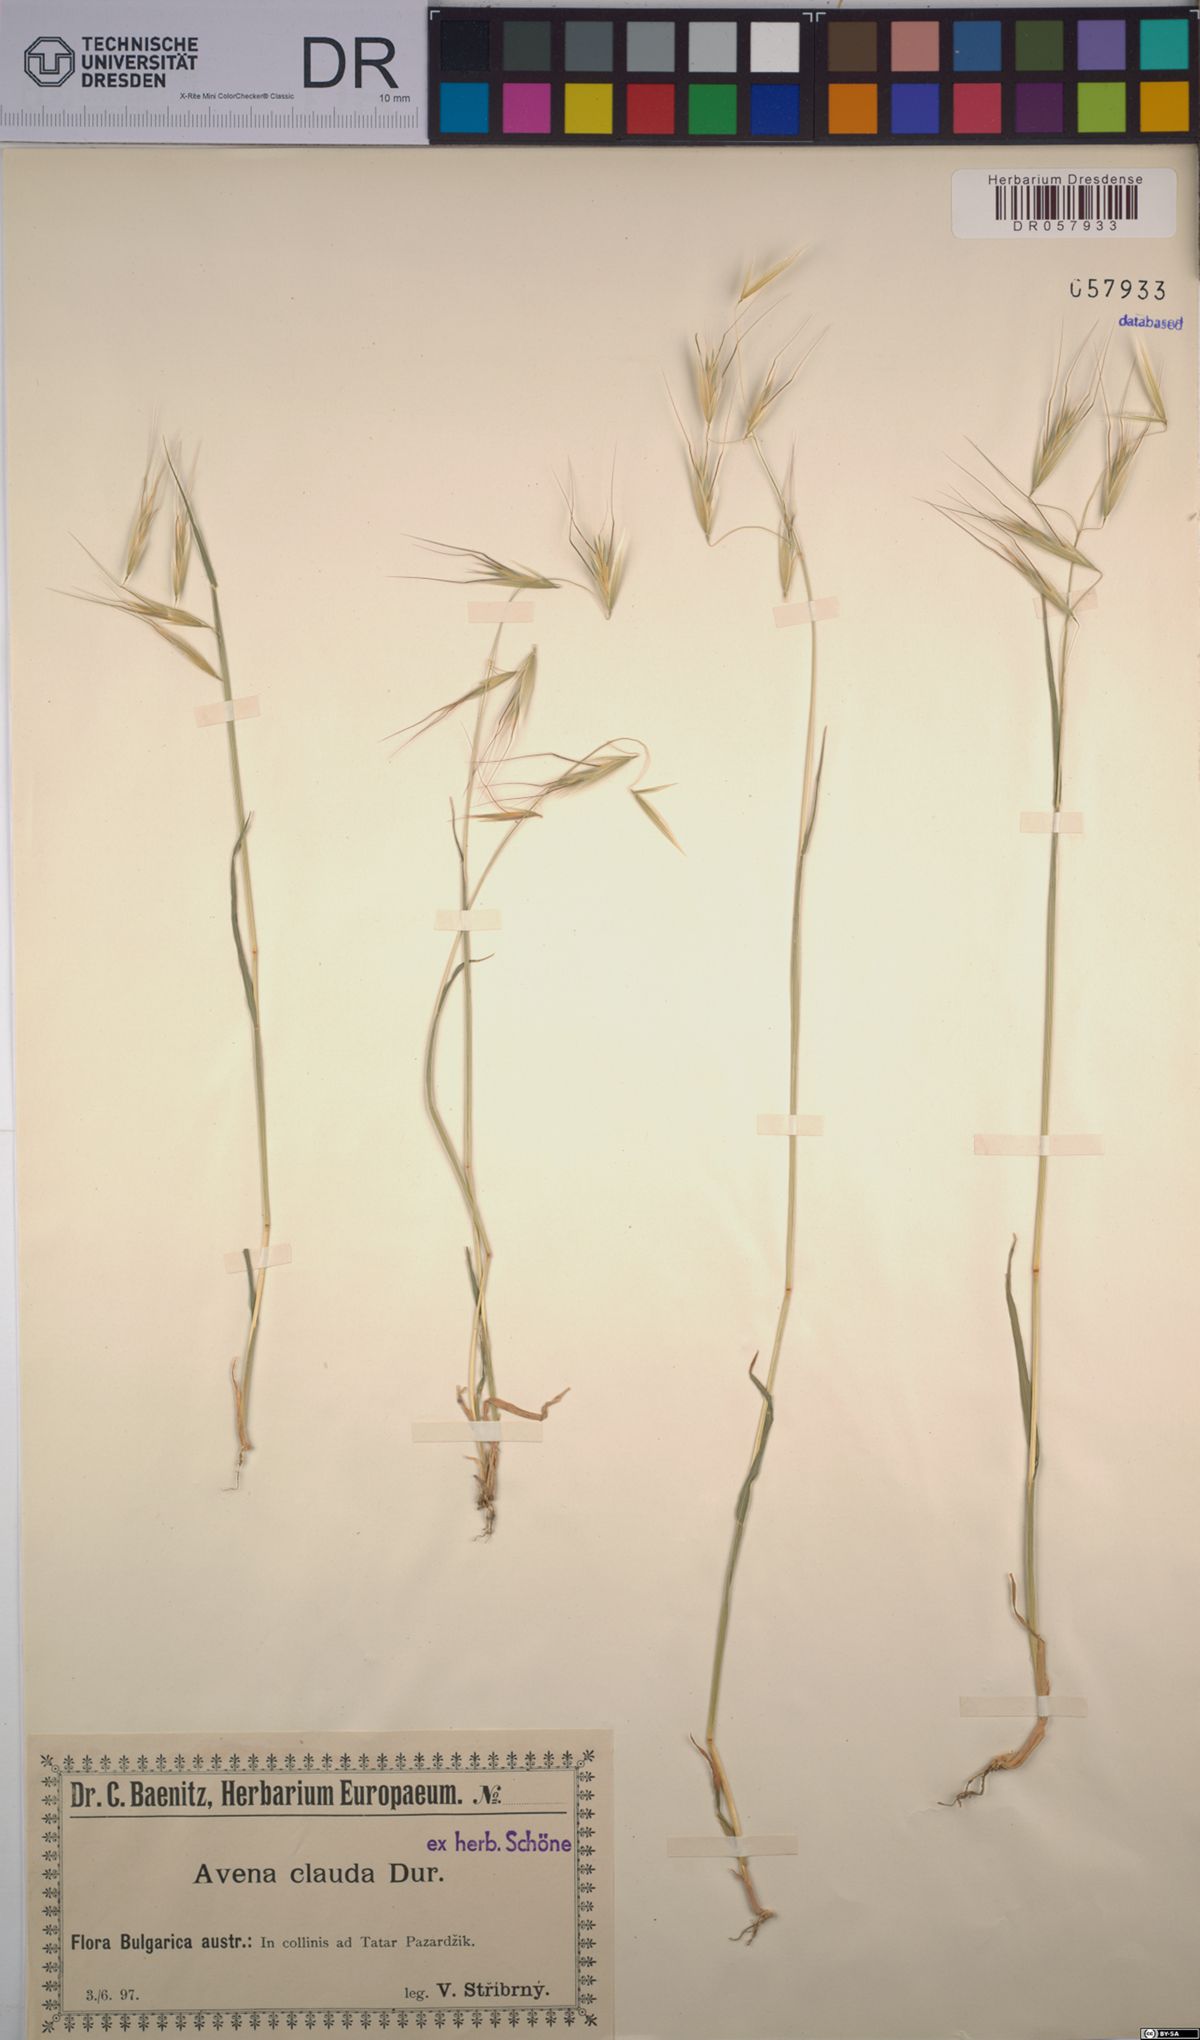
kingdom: Plantae
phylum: Tracheophyta
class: Liliopsida
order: Poales
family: Poaceae
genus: Avena
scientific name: Avena clauda
